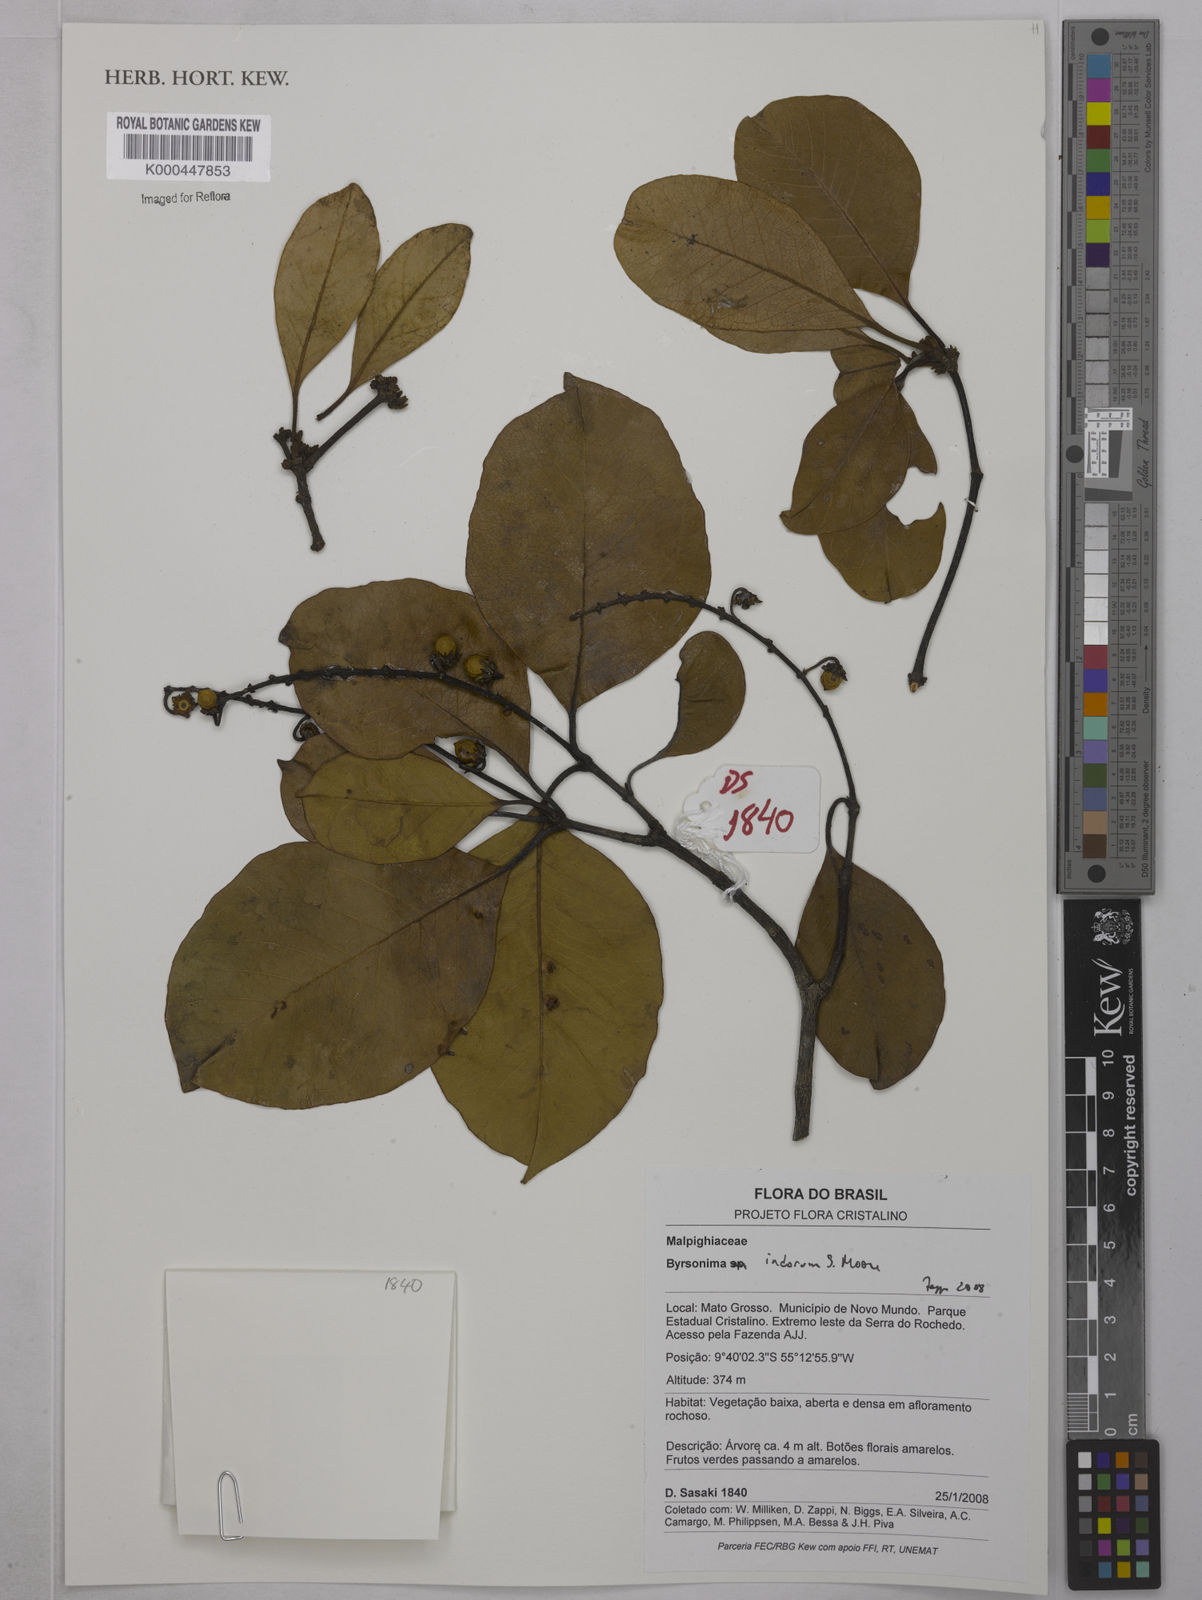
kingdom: Plantae
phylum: Tracheophyta
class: Magnoliopsida
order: Malpighiales
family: Malpighiaceae
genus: Byrsonima
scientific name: Byrsonima arthropoda
